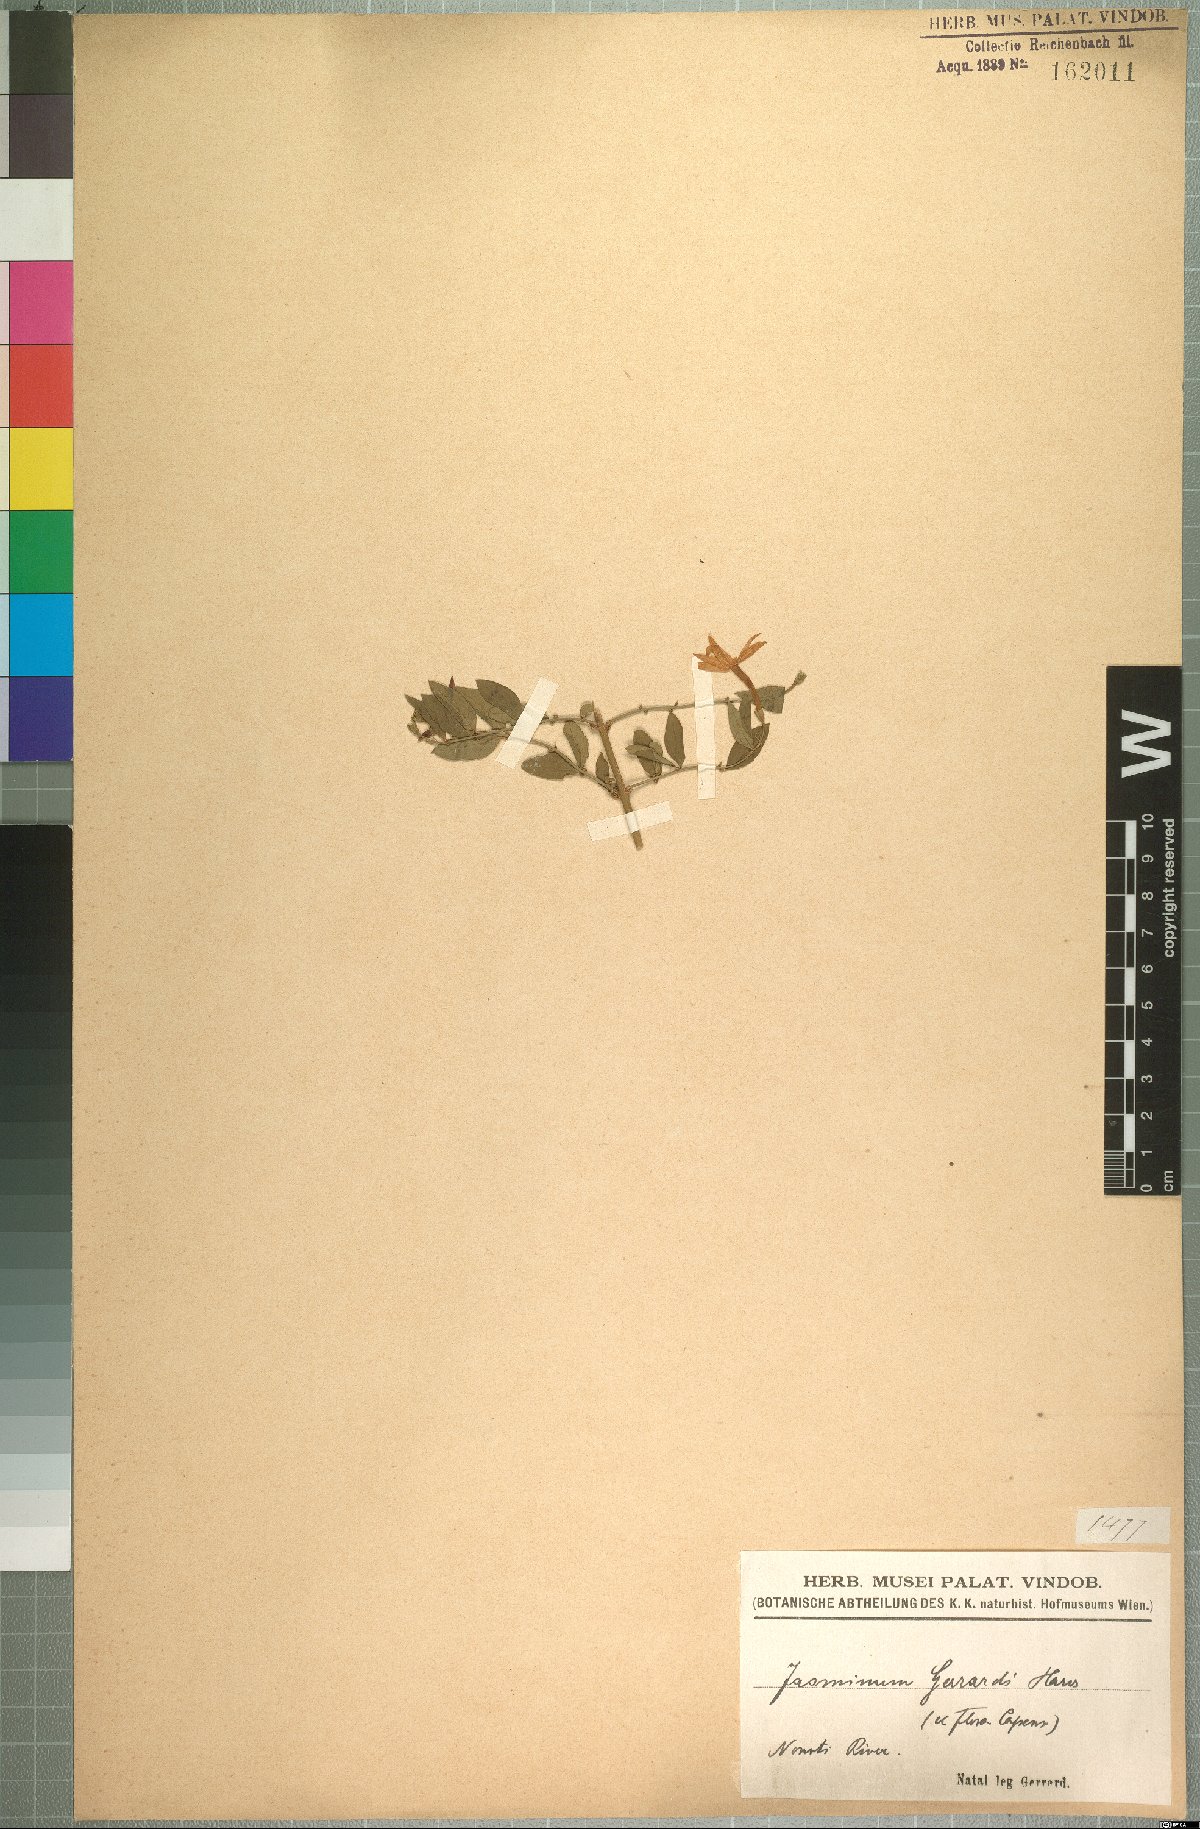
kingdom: Plantae
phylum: Tracheophyta
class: Magnoliopsida
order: Lamiales
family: Oleaceae
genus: Jasminum
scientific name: Jasminum streptopus
